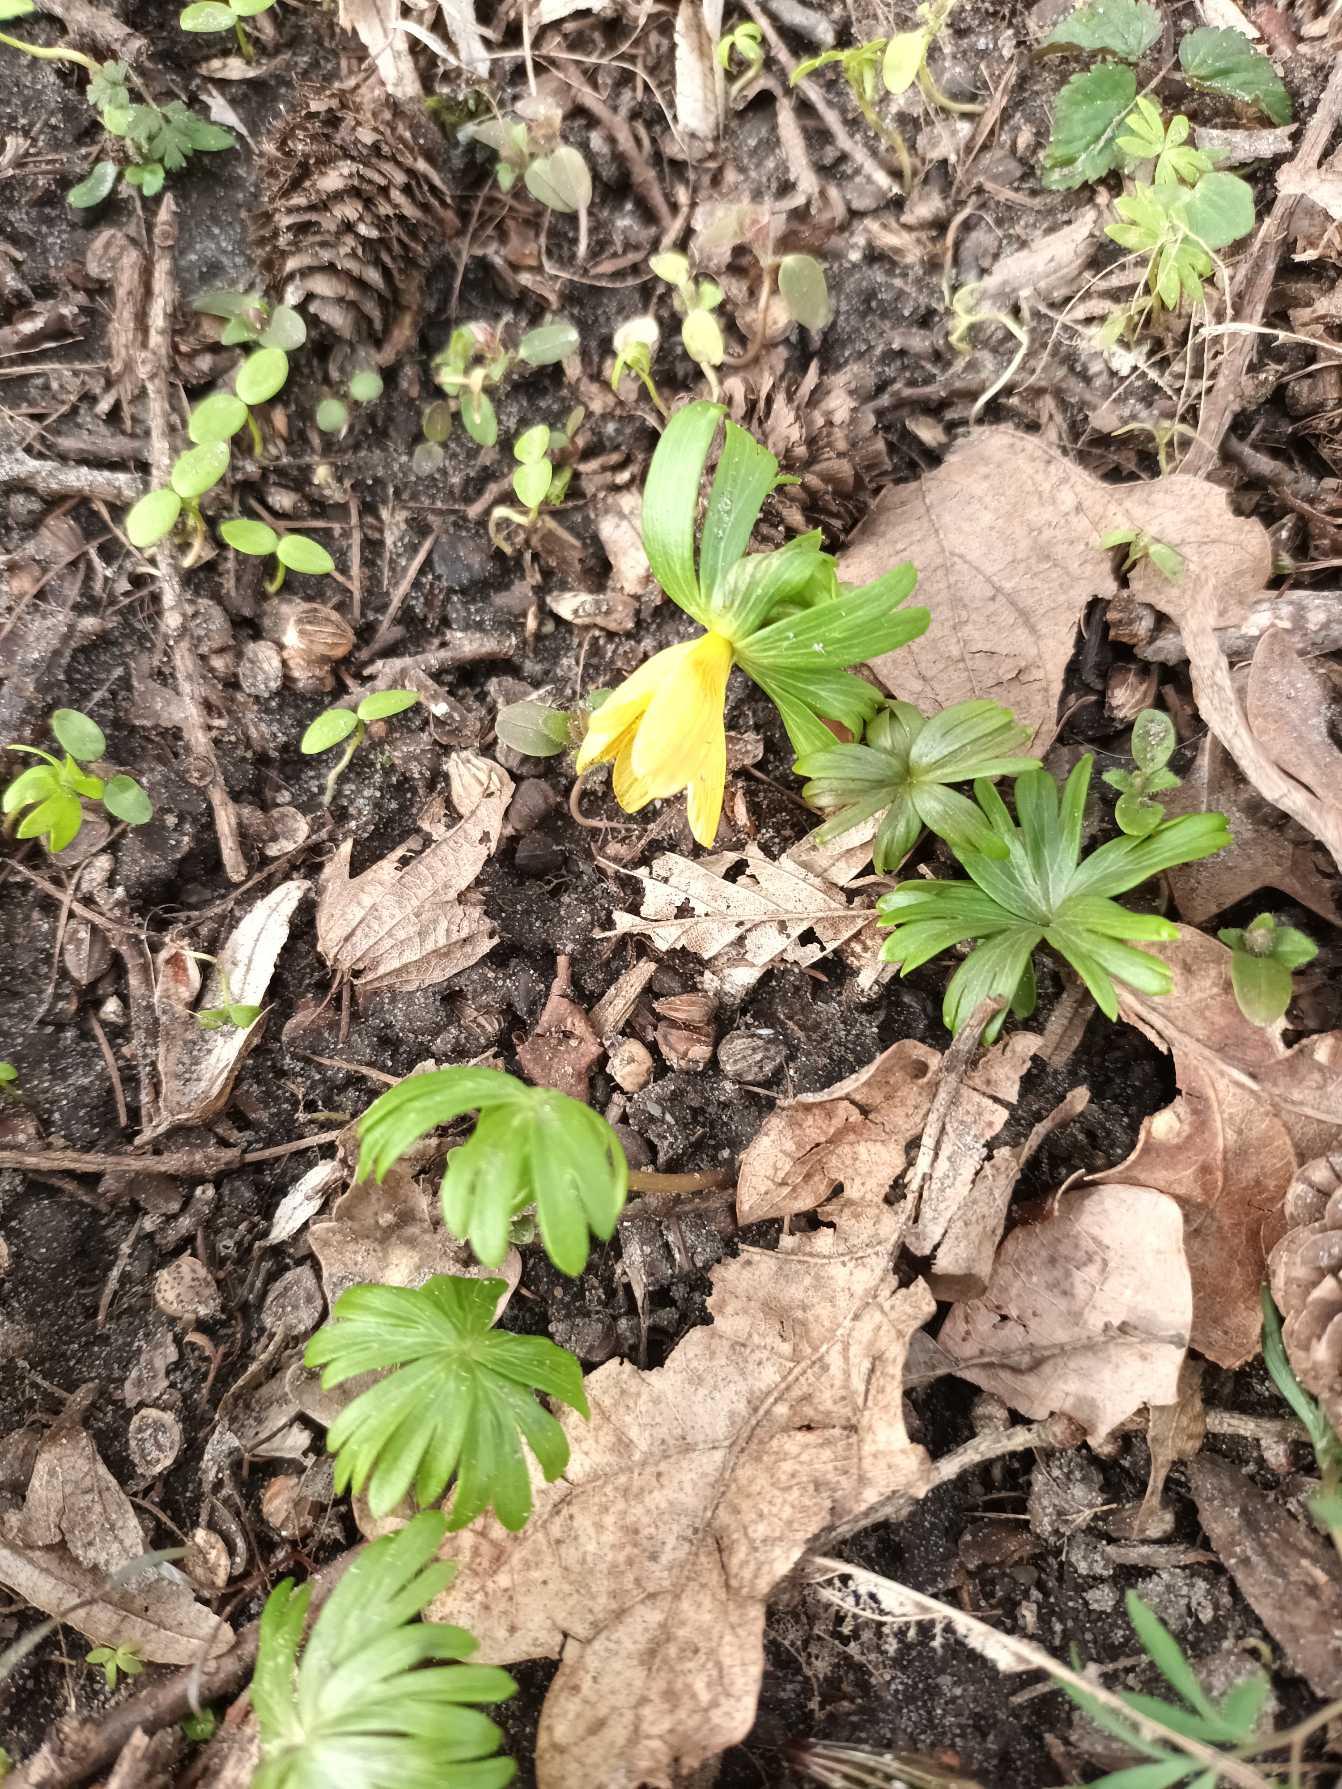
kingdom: Plantae
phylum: Tracheophyta
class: Magnoliopsida
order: Ranunculales
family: Ranunculaceae
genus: Eranthis
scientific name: Eranthis hyemalis
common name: Erantis
